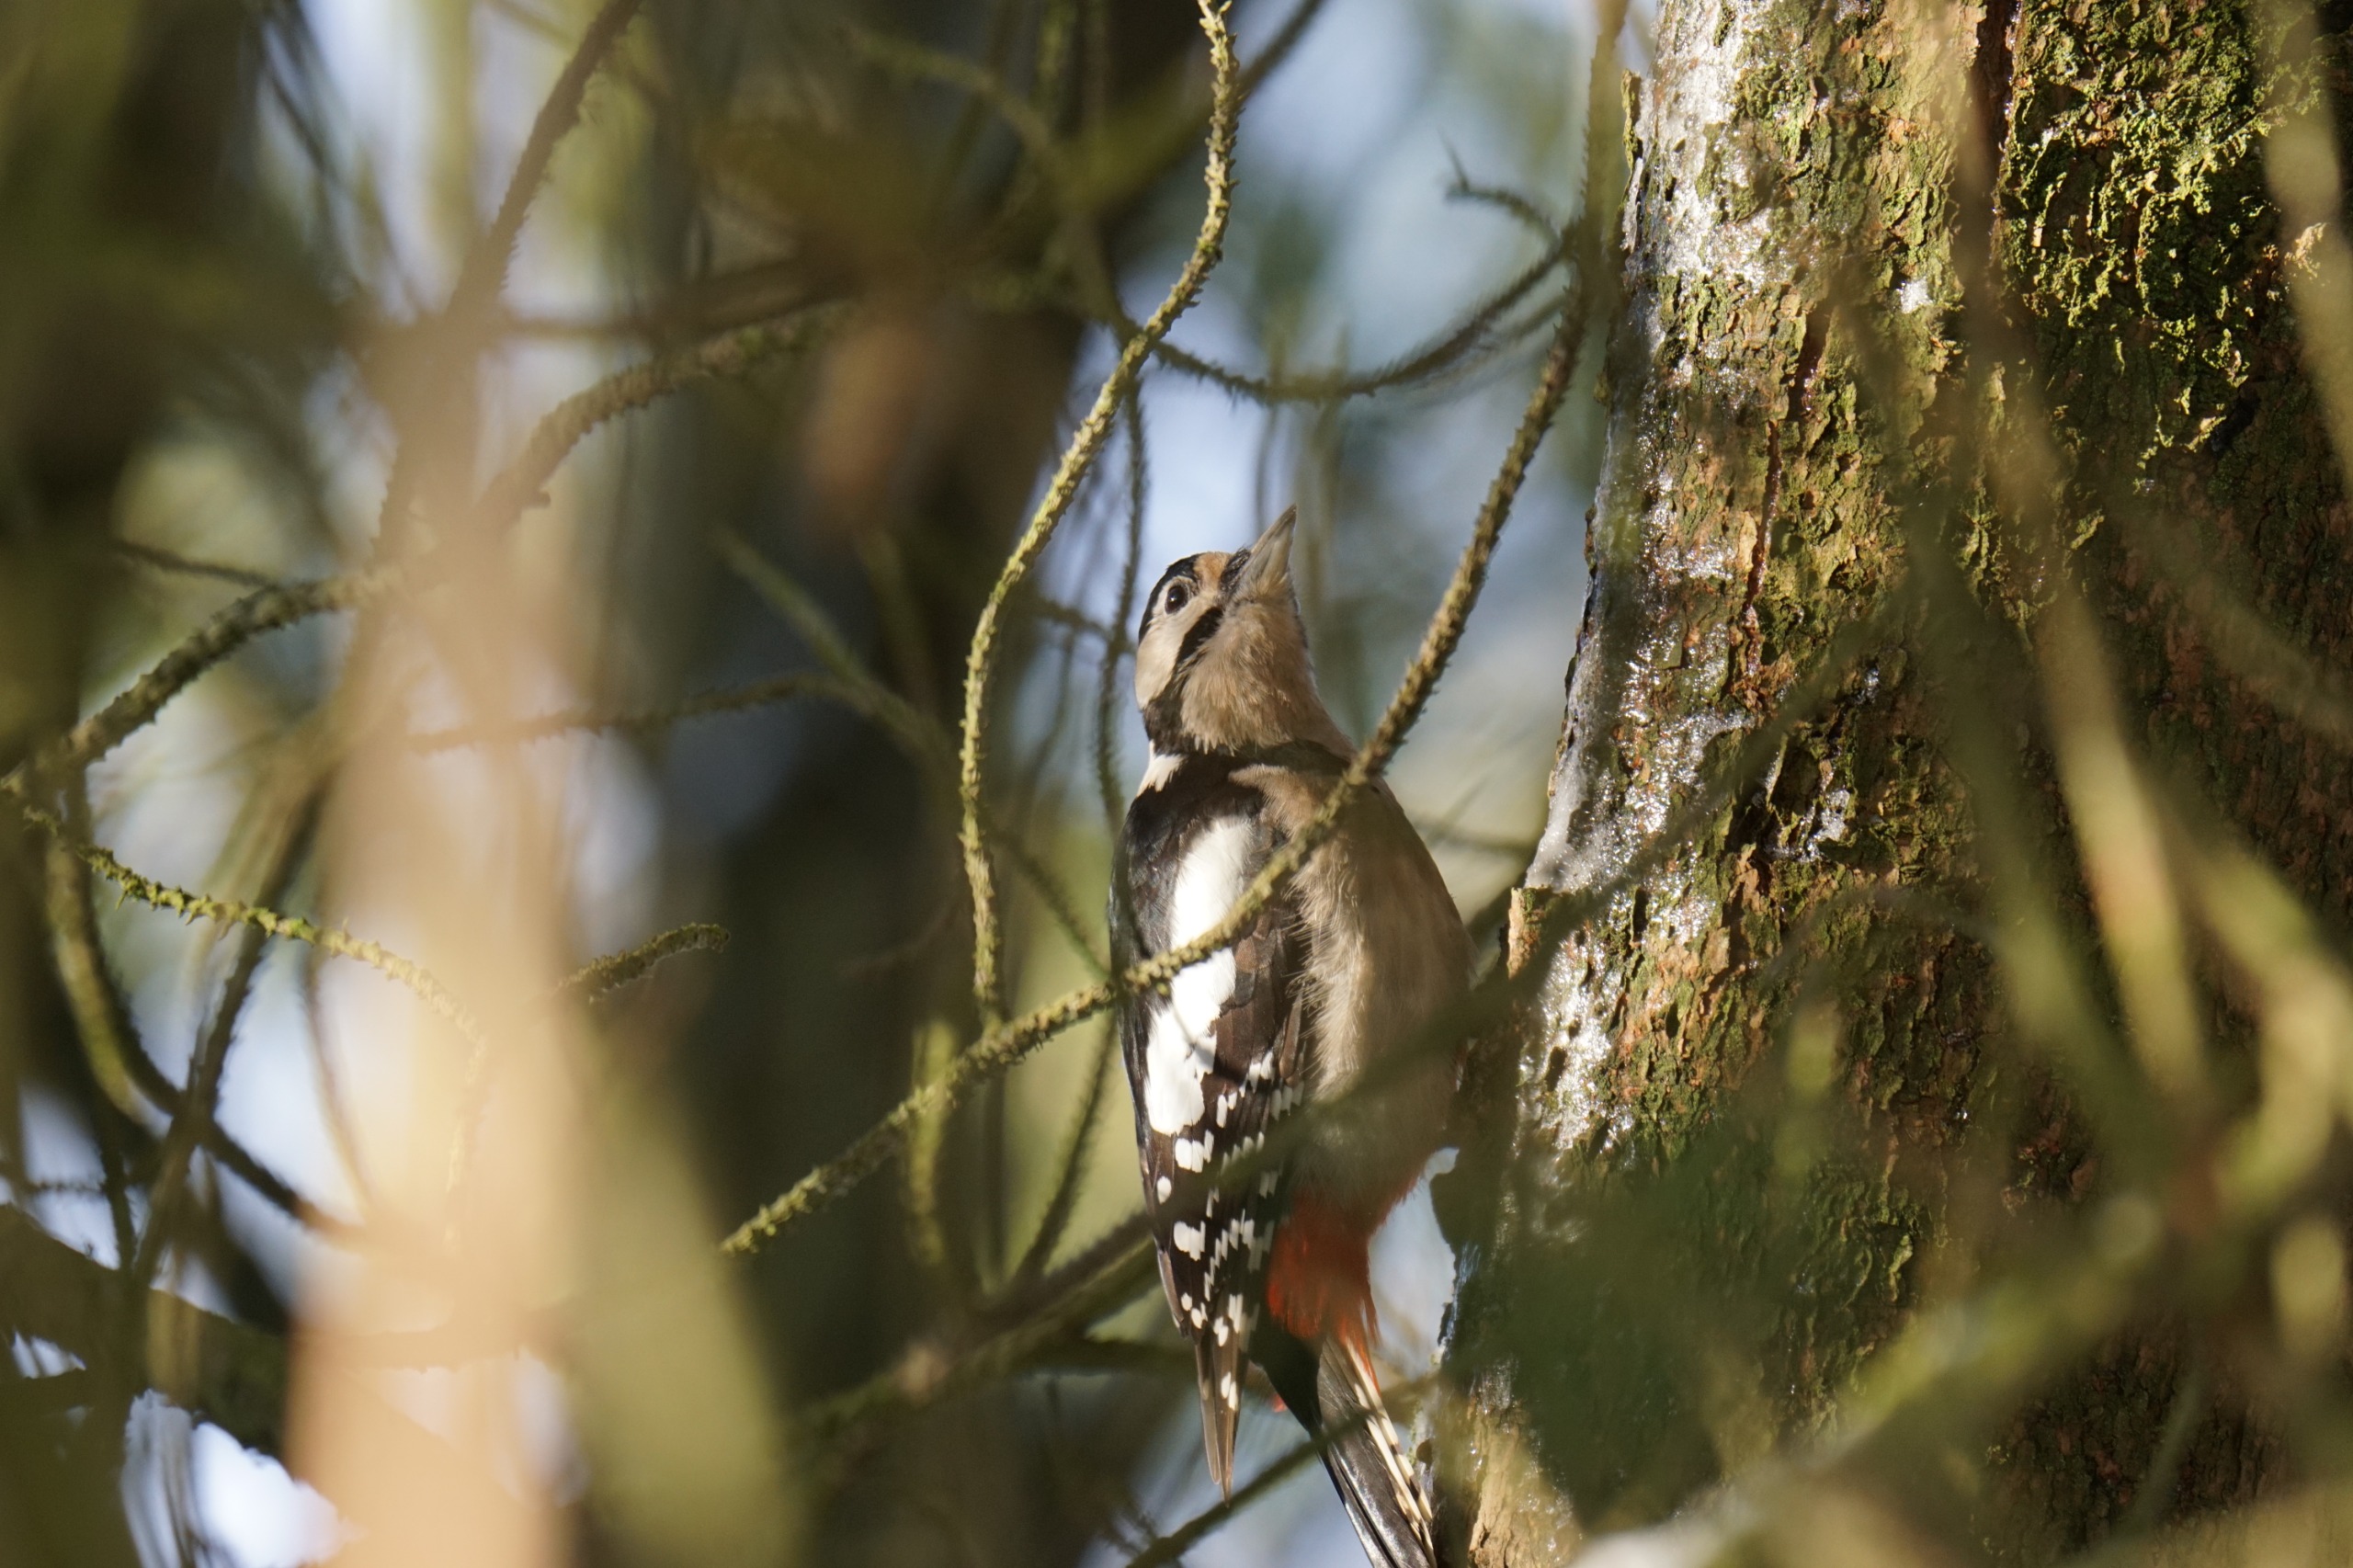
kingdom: Animalia
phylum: Chordata
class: Aves
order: Piciformes
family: Picidae
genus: Dendrocopos
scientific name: Dendrocopos major
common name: Stor flagspætte
